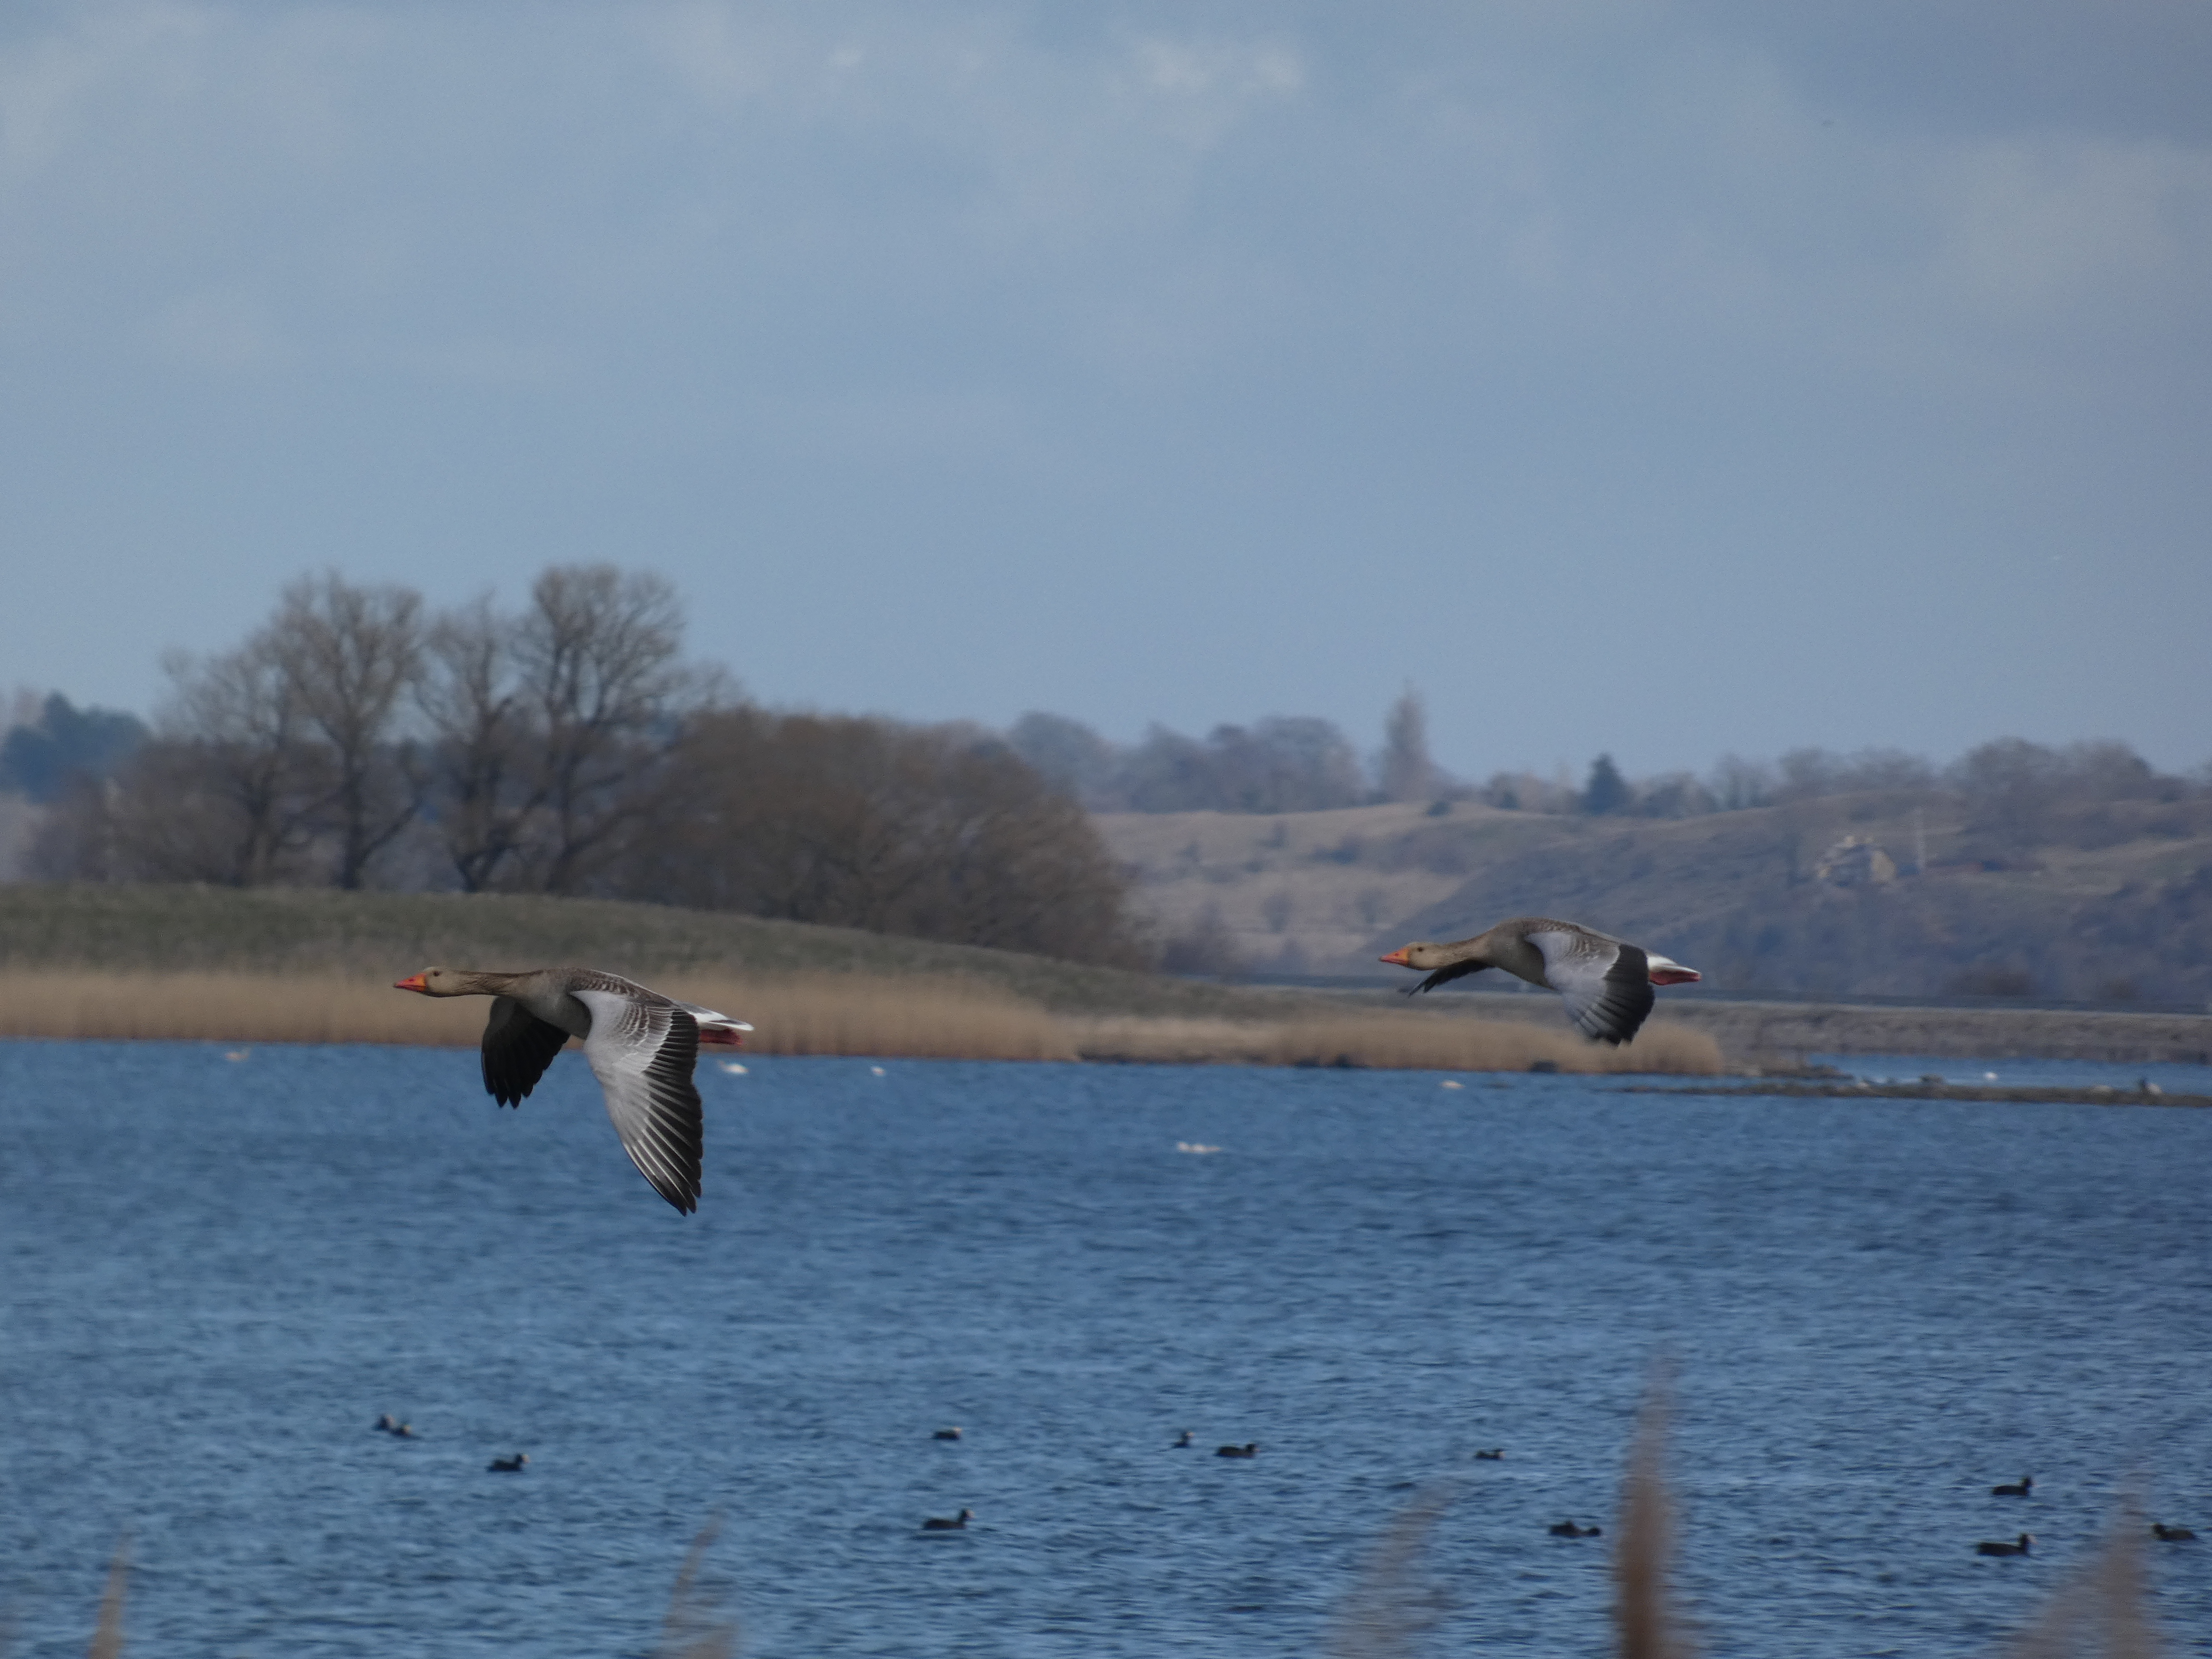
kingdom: Animalia
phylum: Chordata
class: Aves
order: Anseriformes
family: Anatidae
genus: Anser
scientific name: Anser anser
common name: Grågås
